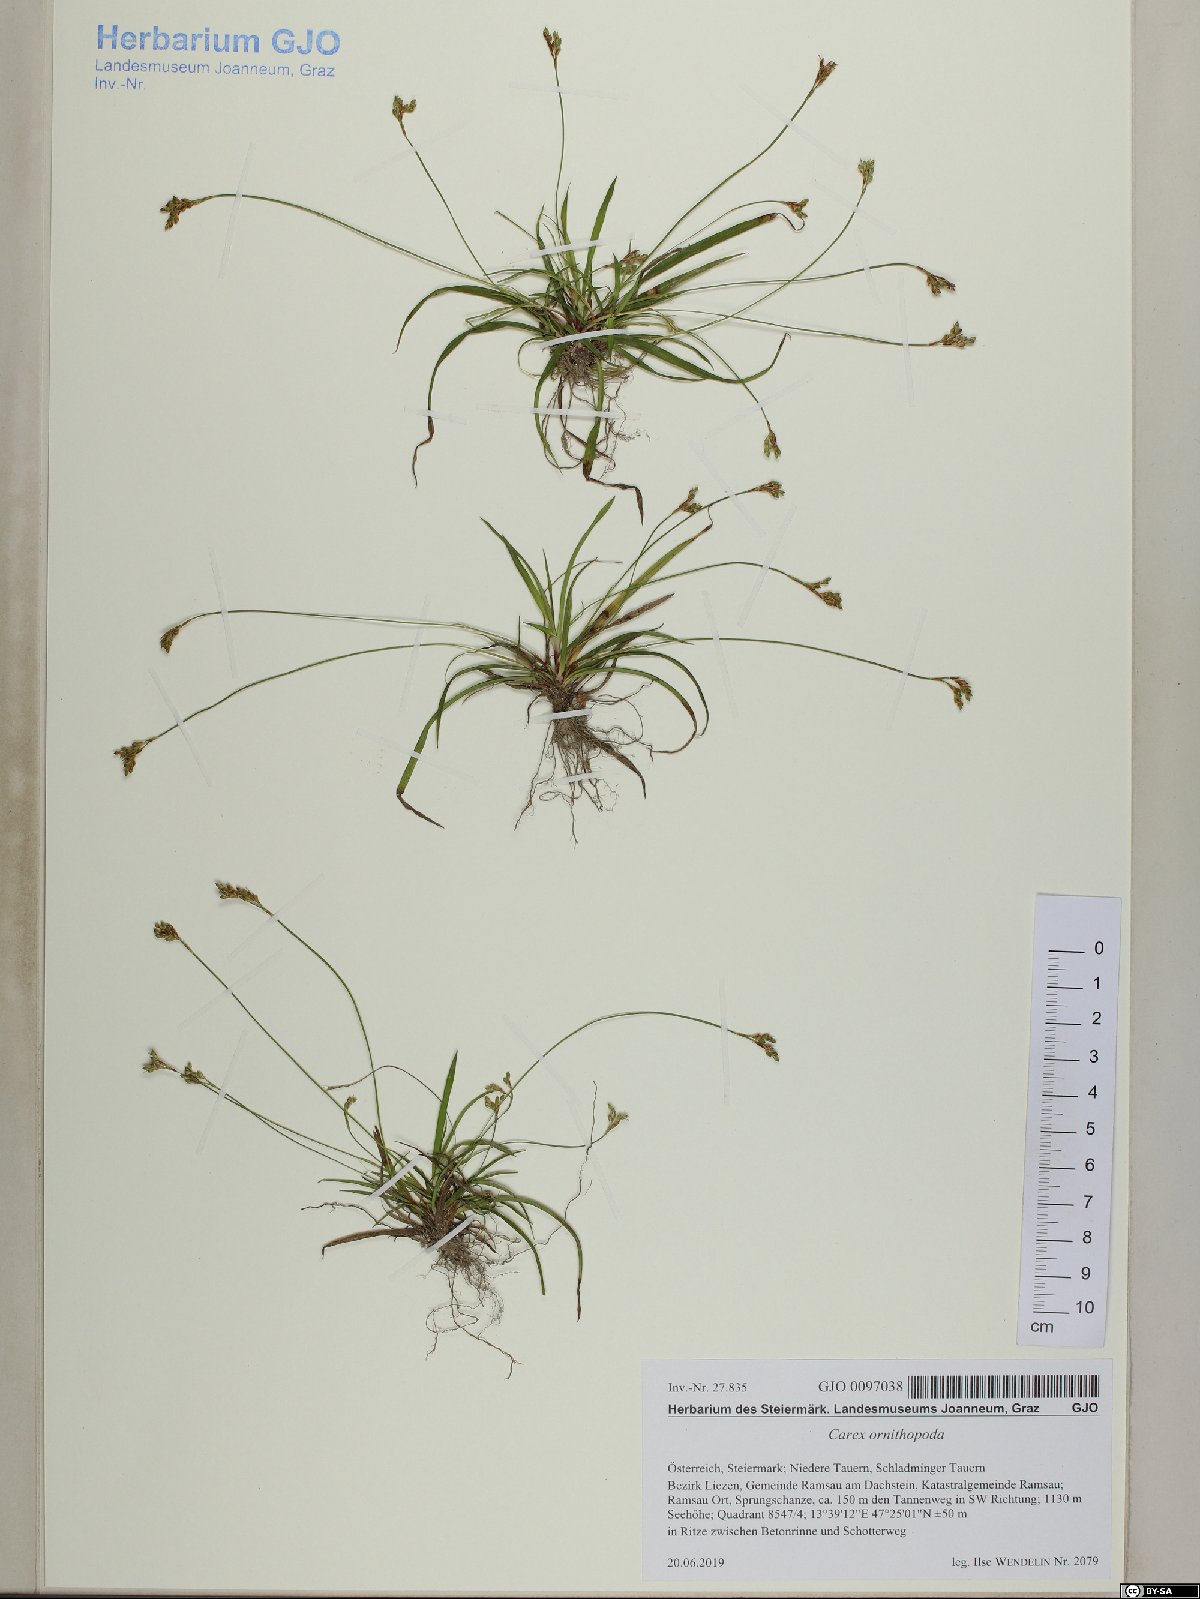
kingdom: Plantae
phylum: Tracheophyta
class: Liliopsida
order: Poales
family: Cyperaceae
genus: Carex
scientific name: Carex ornithopoda
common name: Bird's-foot sedge
